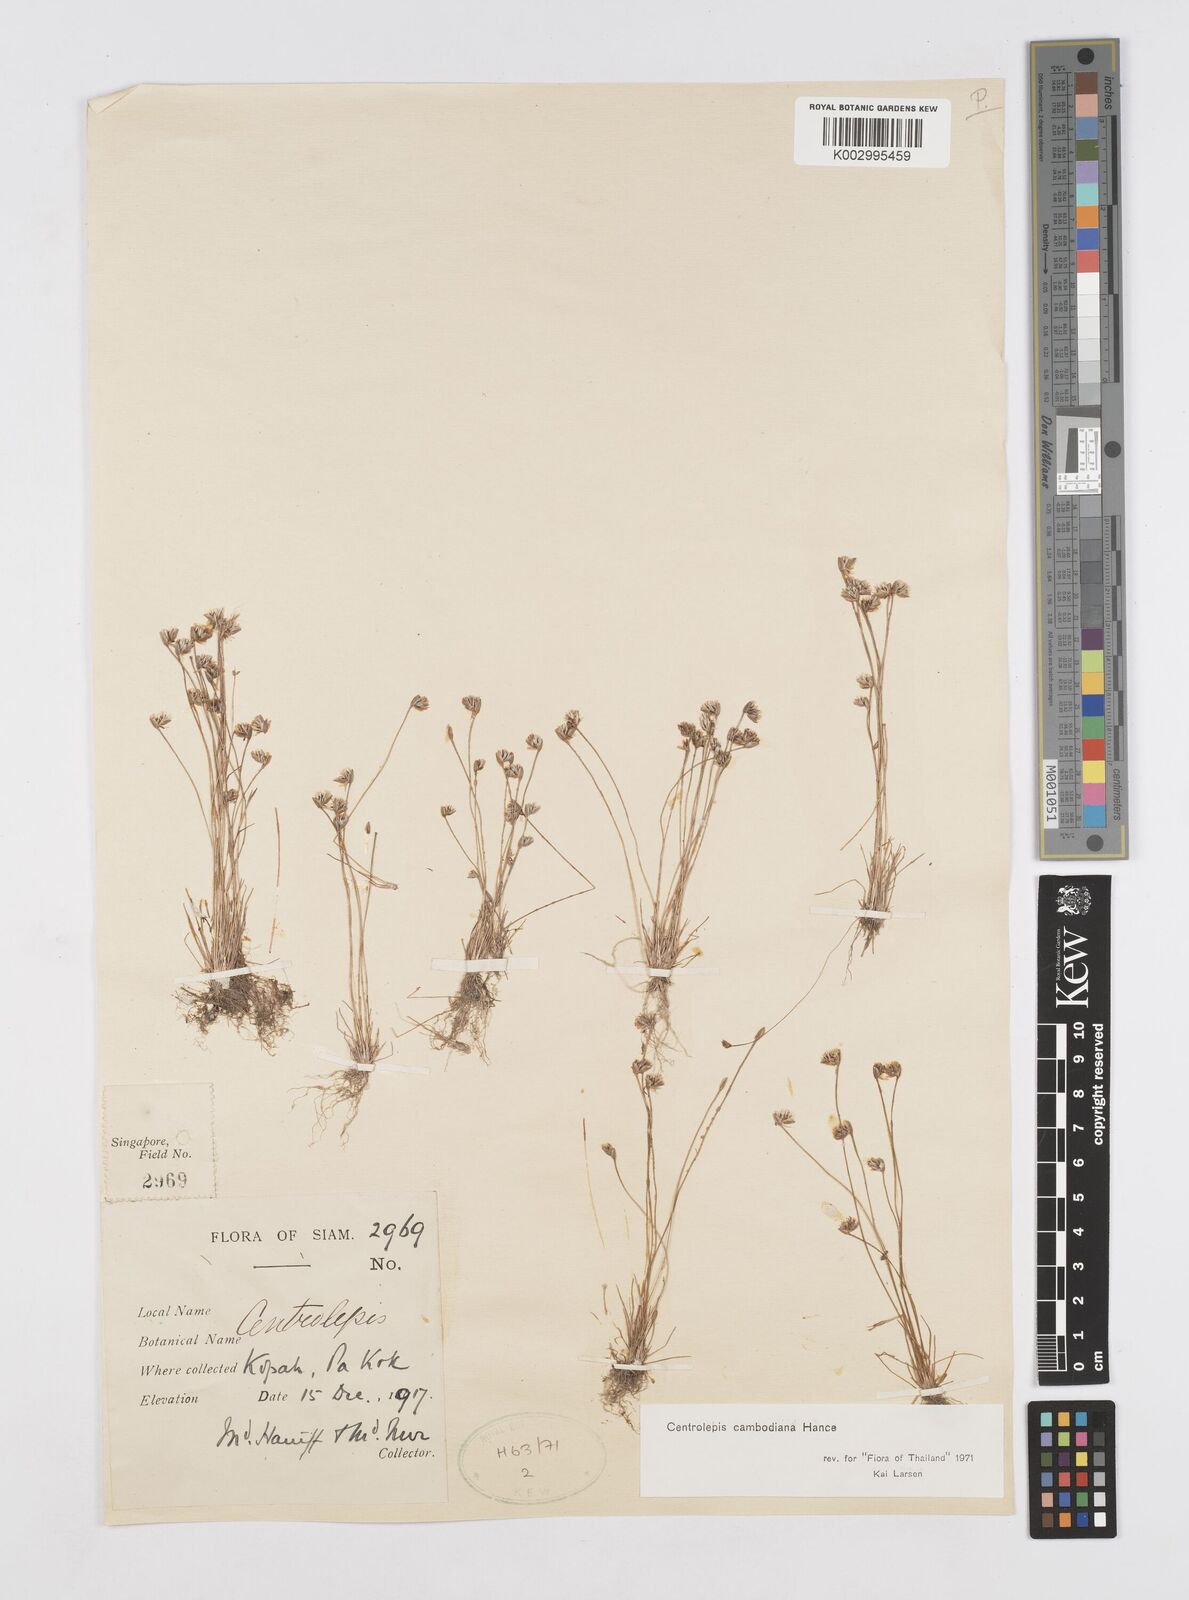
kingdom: Plantae
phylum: Tracheophyta
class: Liliopsida
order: Poales
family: Restionaceae
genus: Centrolepis
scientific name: Centrolepis cambodiana
